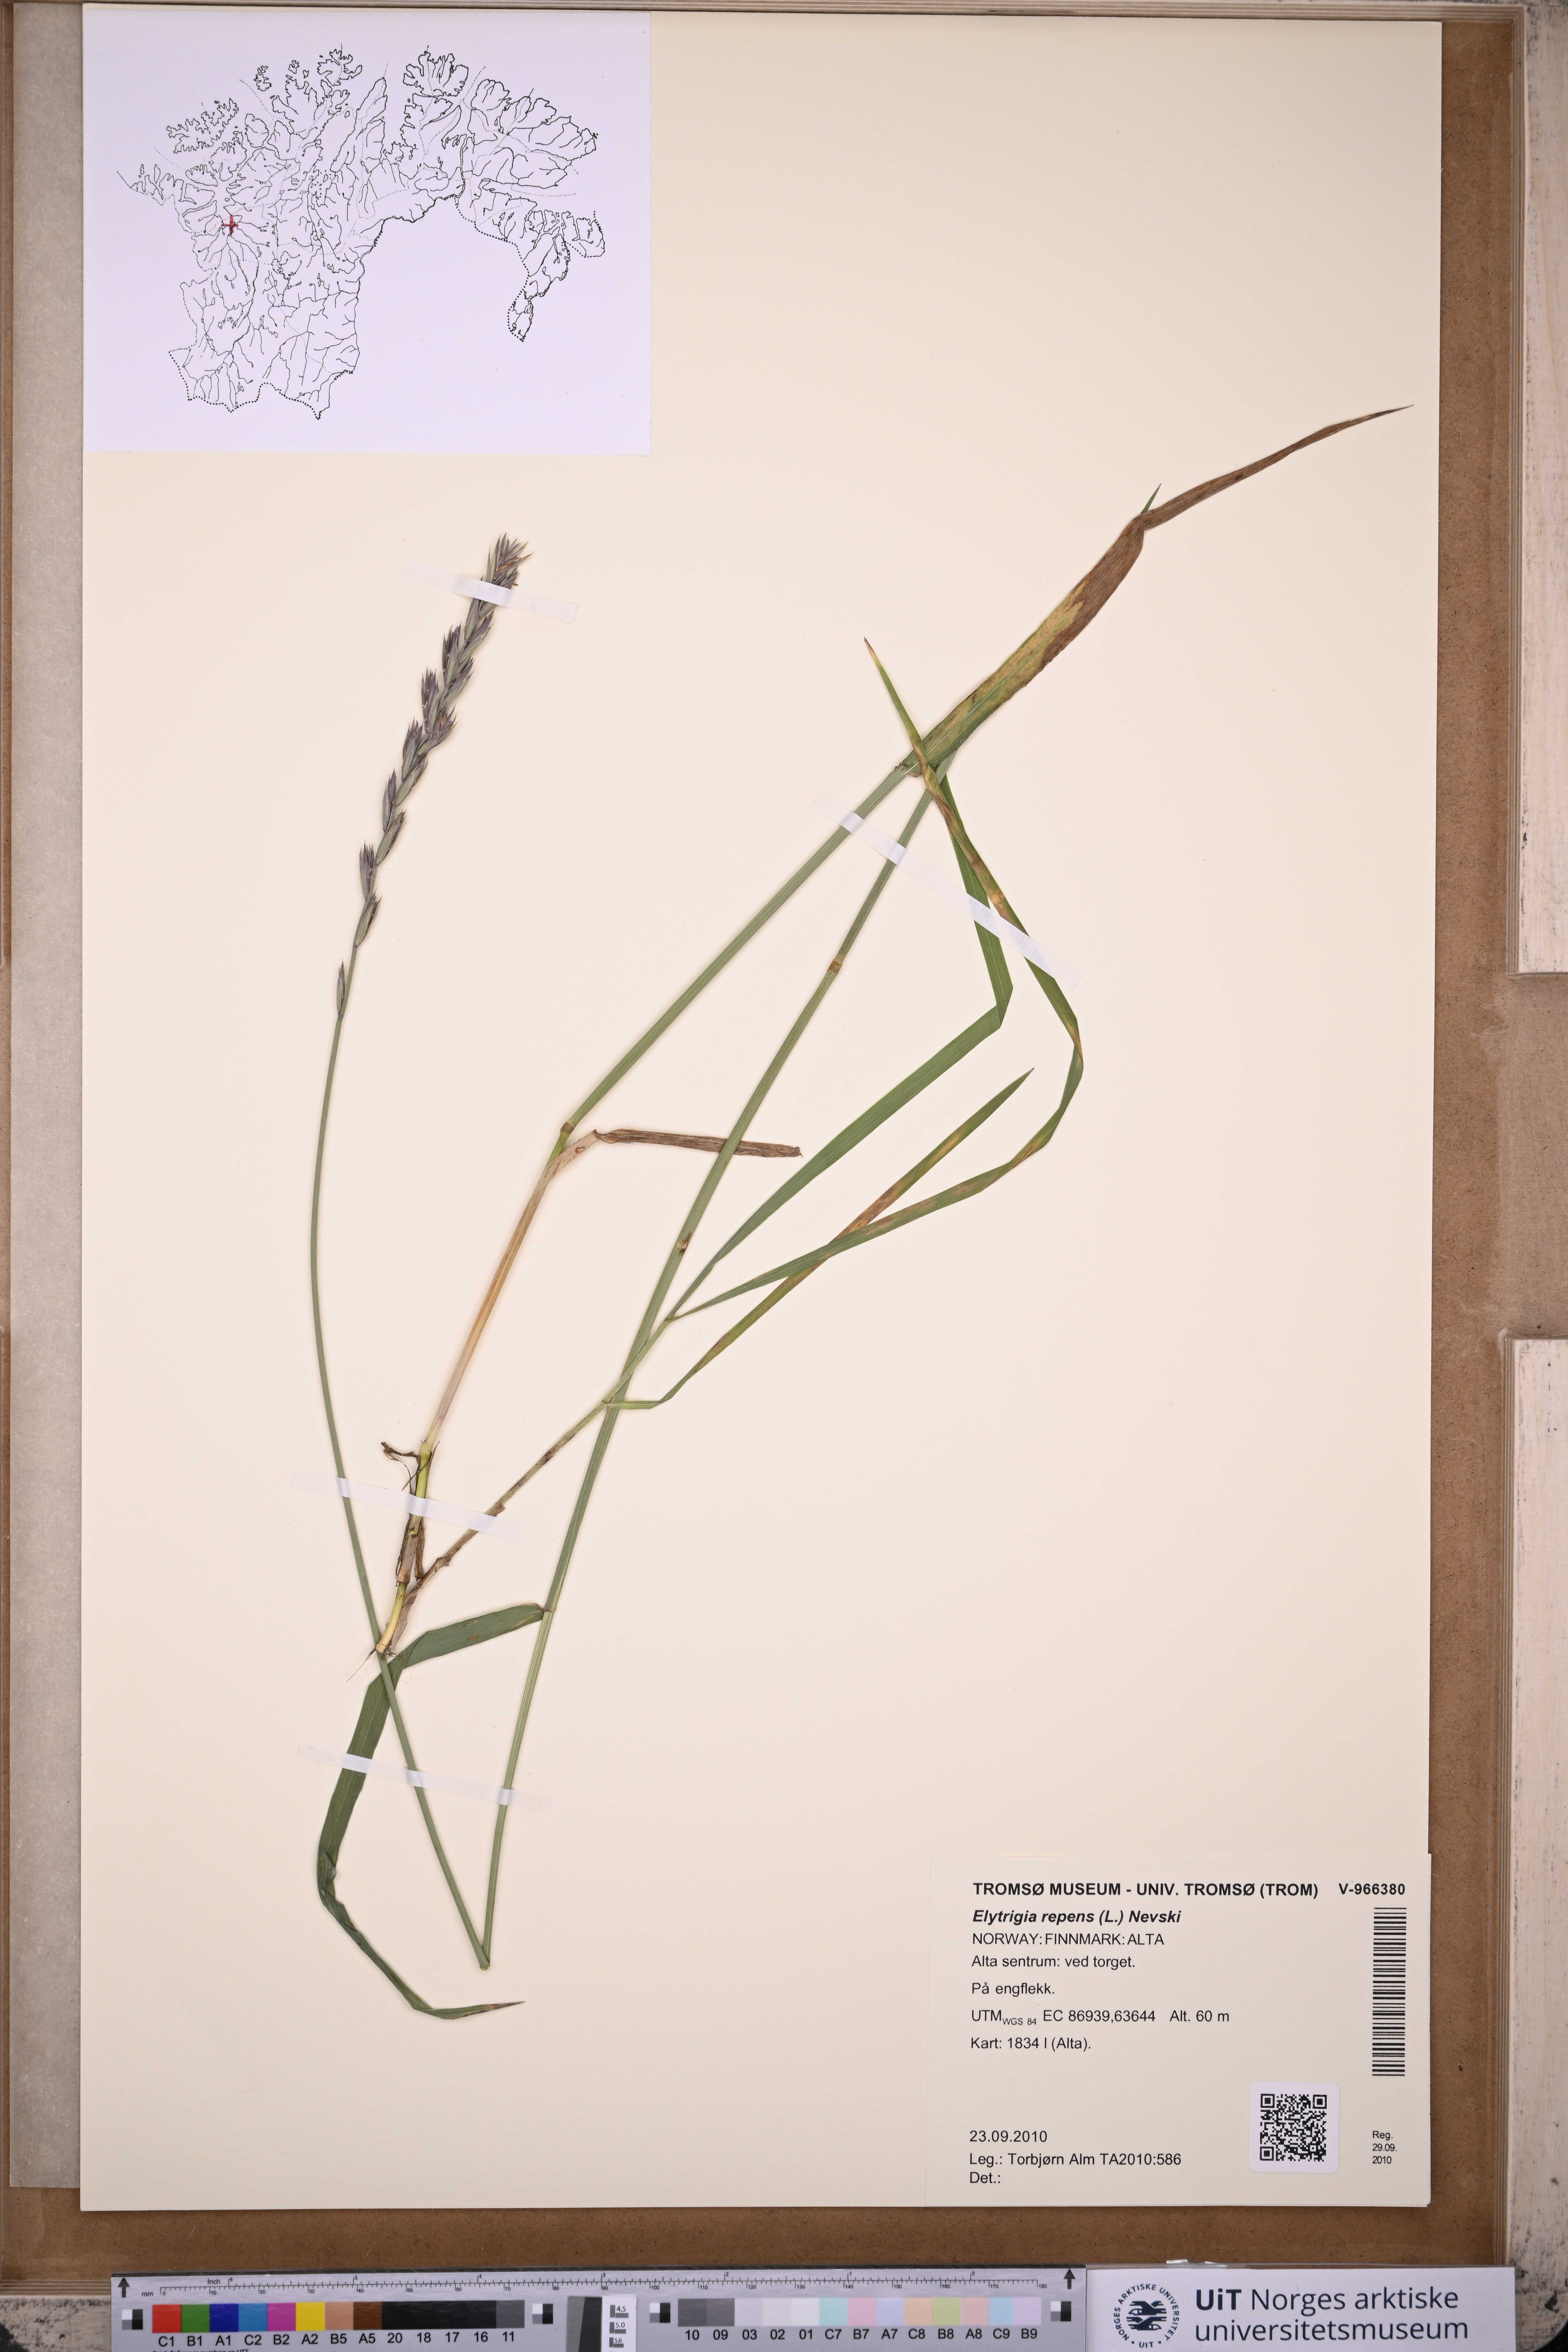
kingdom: Plantae
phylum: Tracheophyta
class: Liliopsida
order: Poales
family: Poaceae
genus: Elymus
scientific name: Elymus repens
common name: Quackgrass
